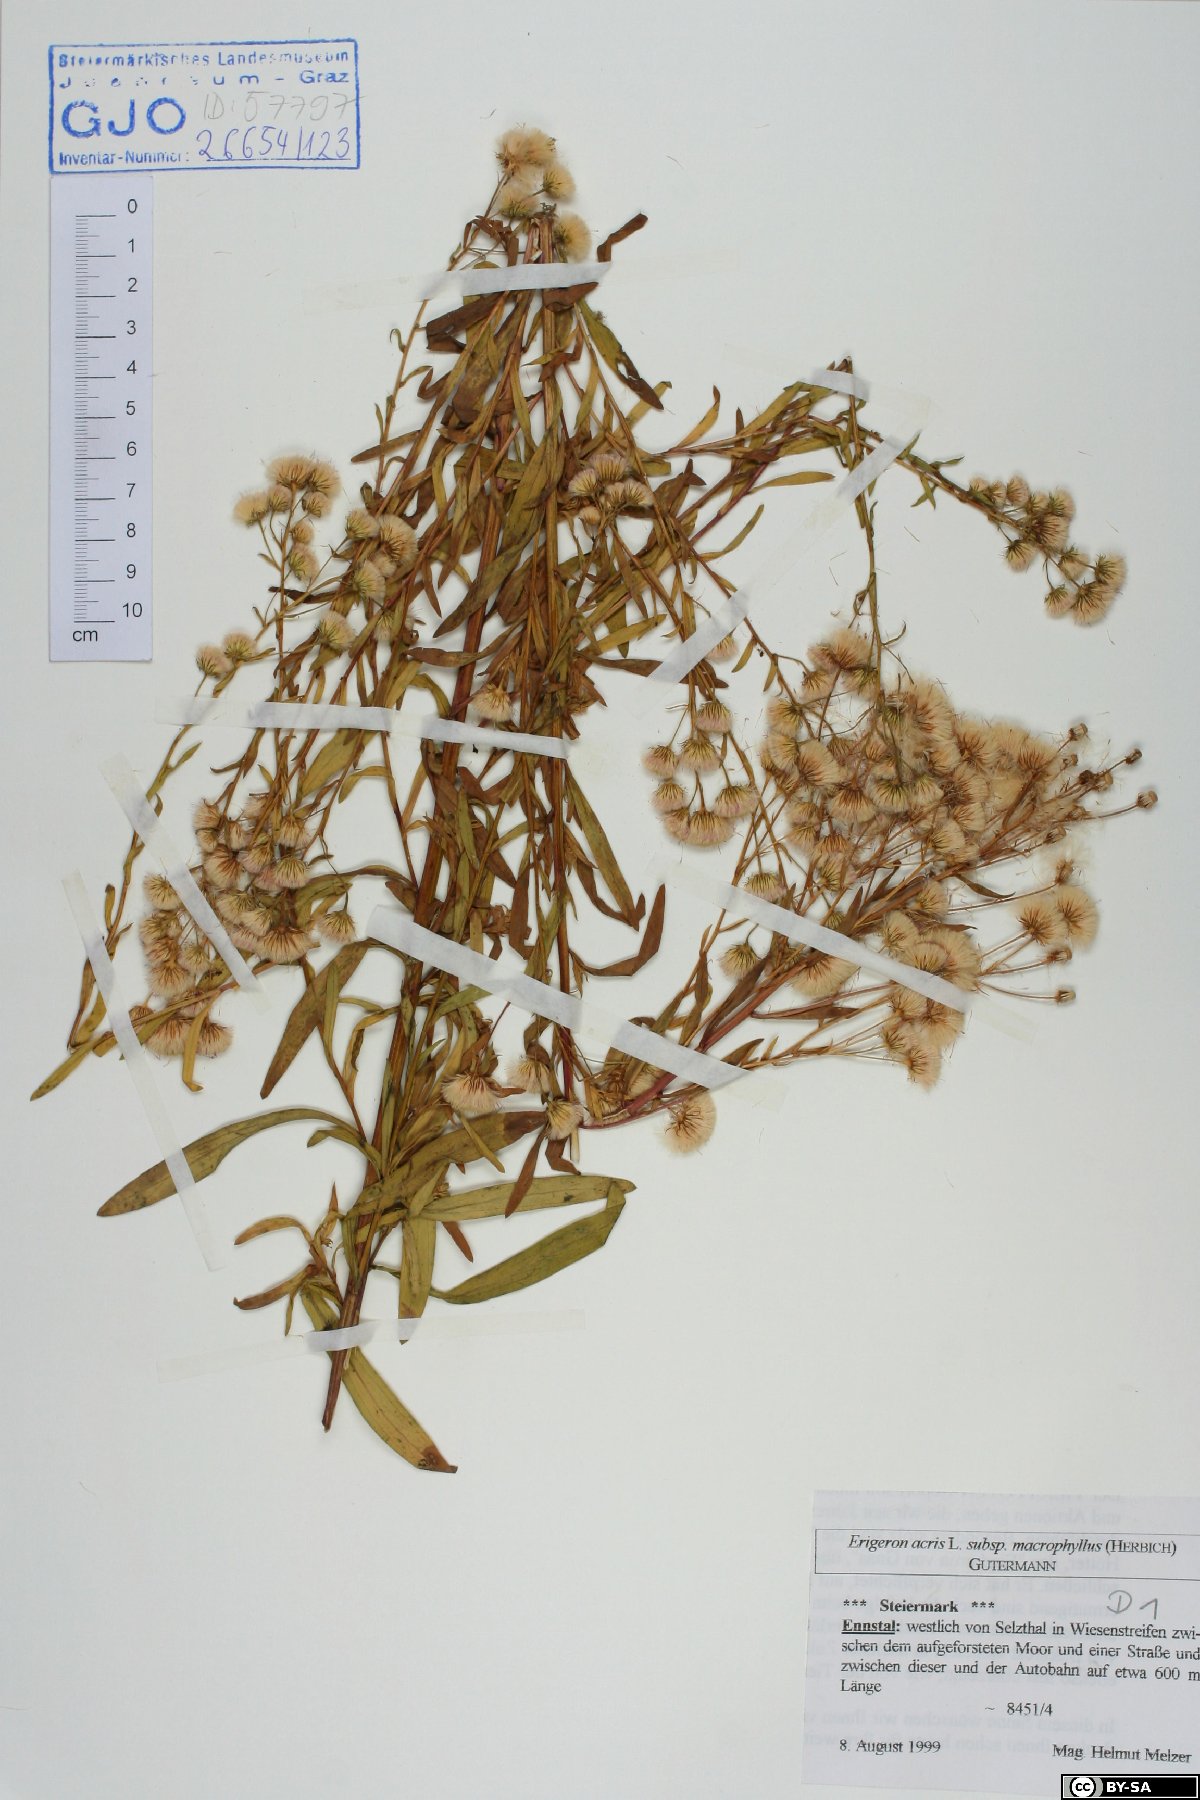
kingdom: Plantae
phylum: Tracheophyta
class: Magnoliopsida
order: Asterales
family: Asteraceae
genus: Erigeron
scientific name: Erigeron macrophyllus
